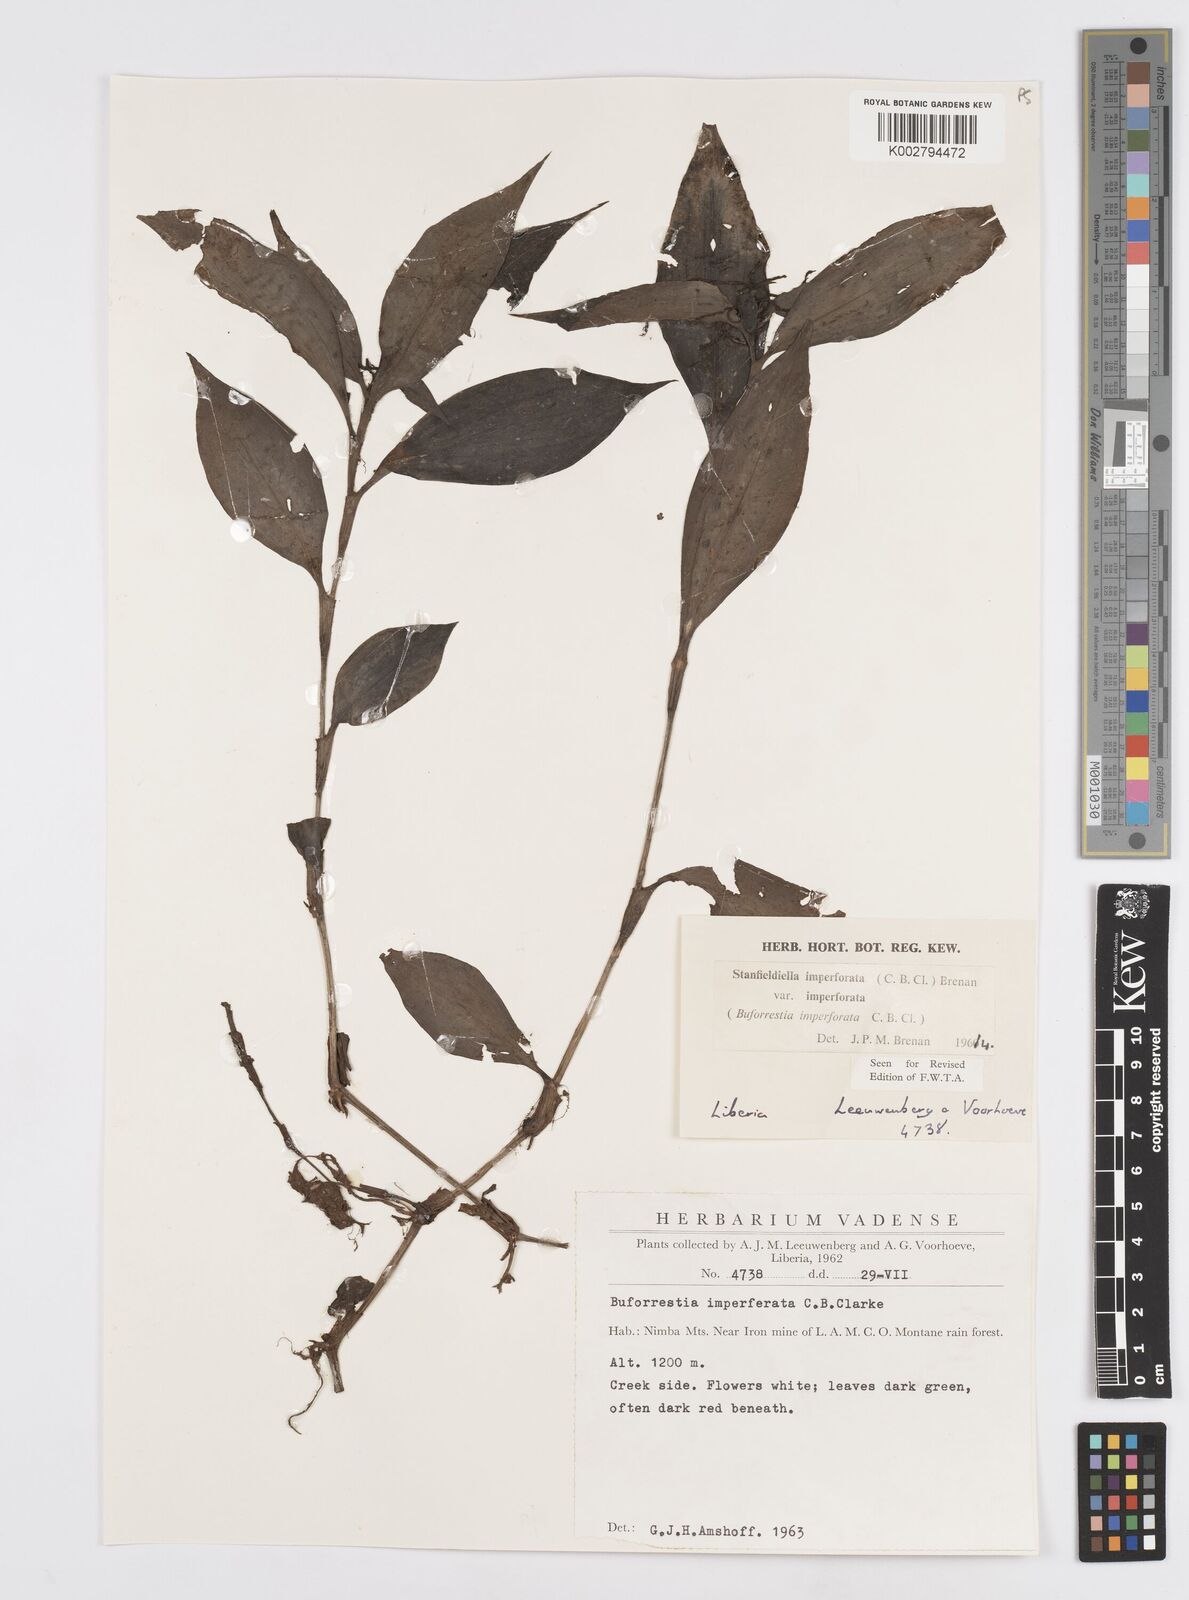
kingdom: Plantae
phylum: Tracheophyta
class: Liliopsida
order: Commelinales
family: Commelinaceae
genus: Stanfieldiella
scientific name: Stanfieldiella imperforata
